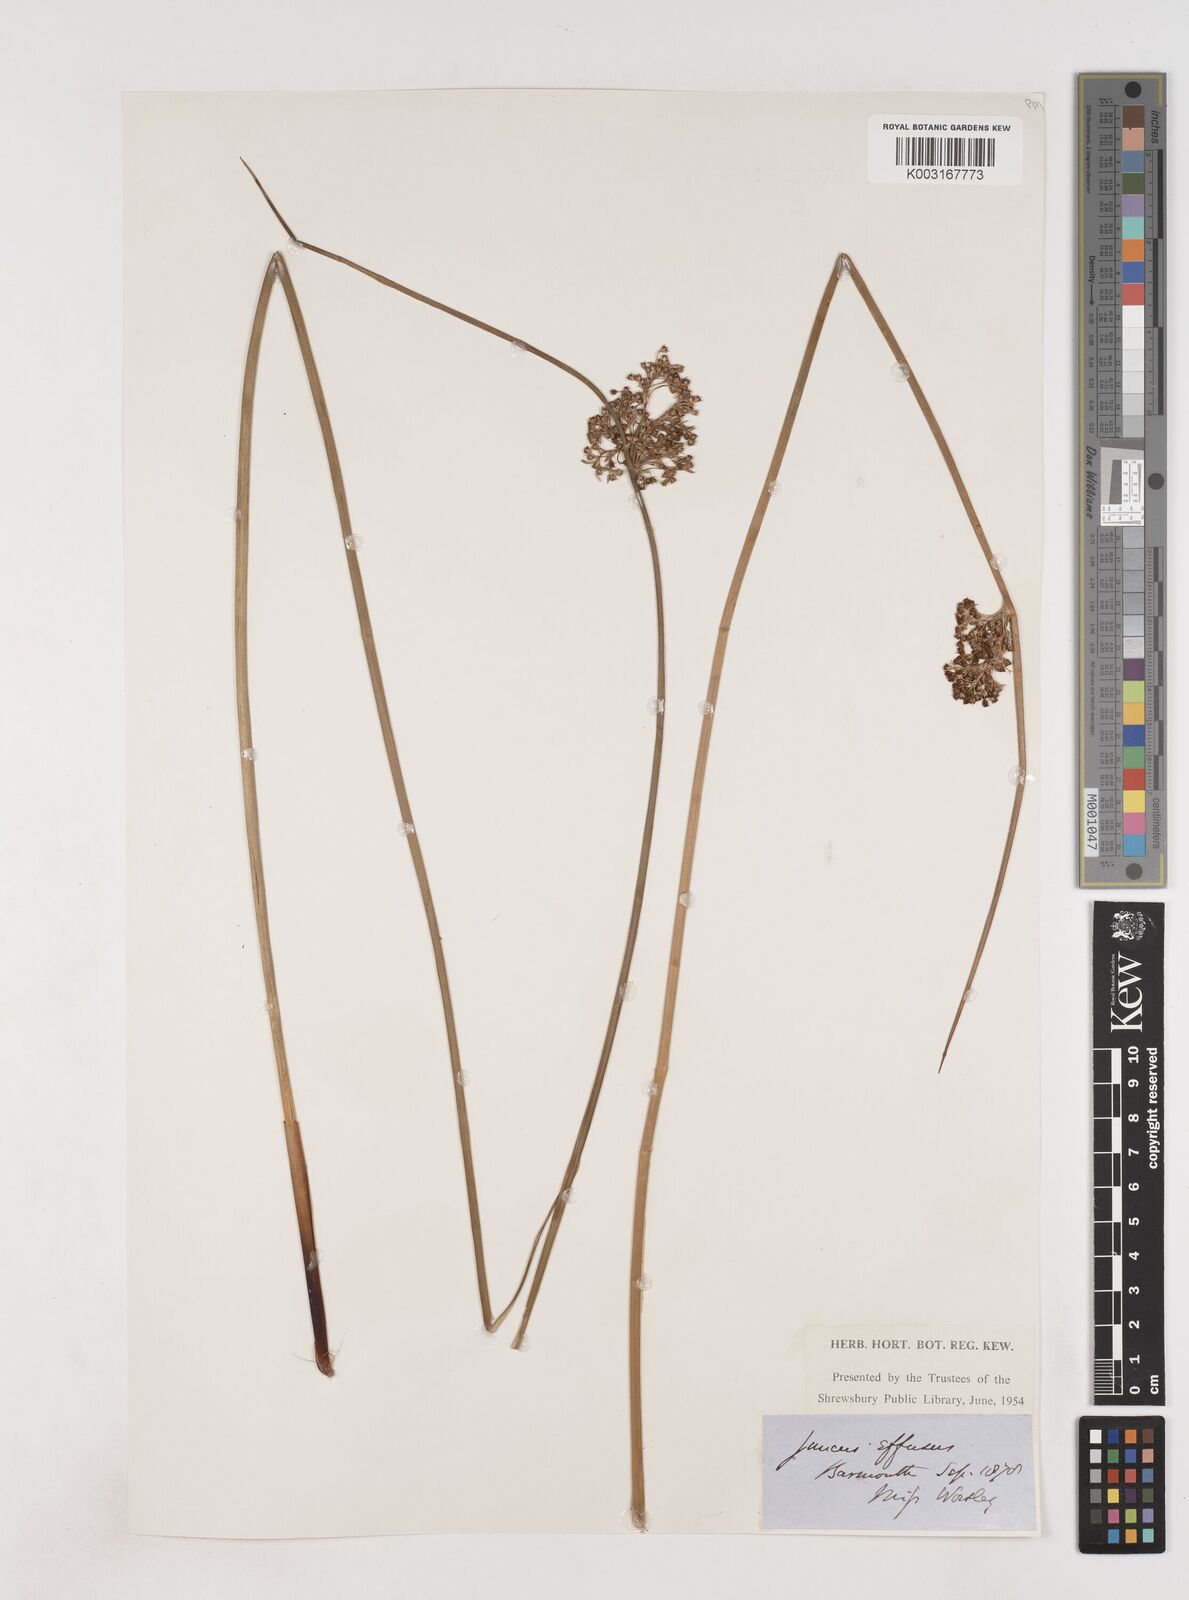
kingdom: Plantae
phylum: Tracheophyta
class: Liliopsida
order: Poales
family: Juncaceae
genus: Juncus
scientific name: Juncus effusus
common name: Soft rush
